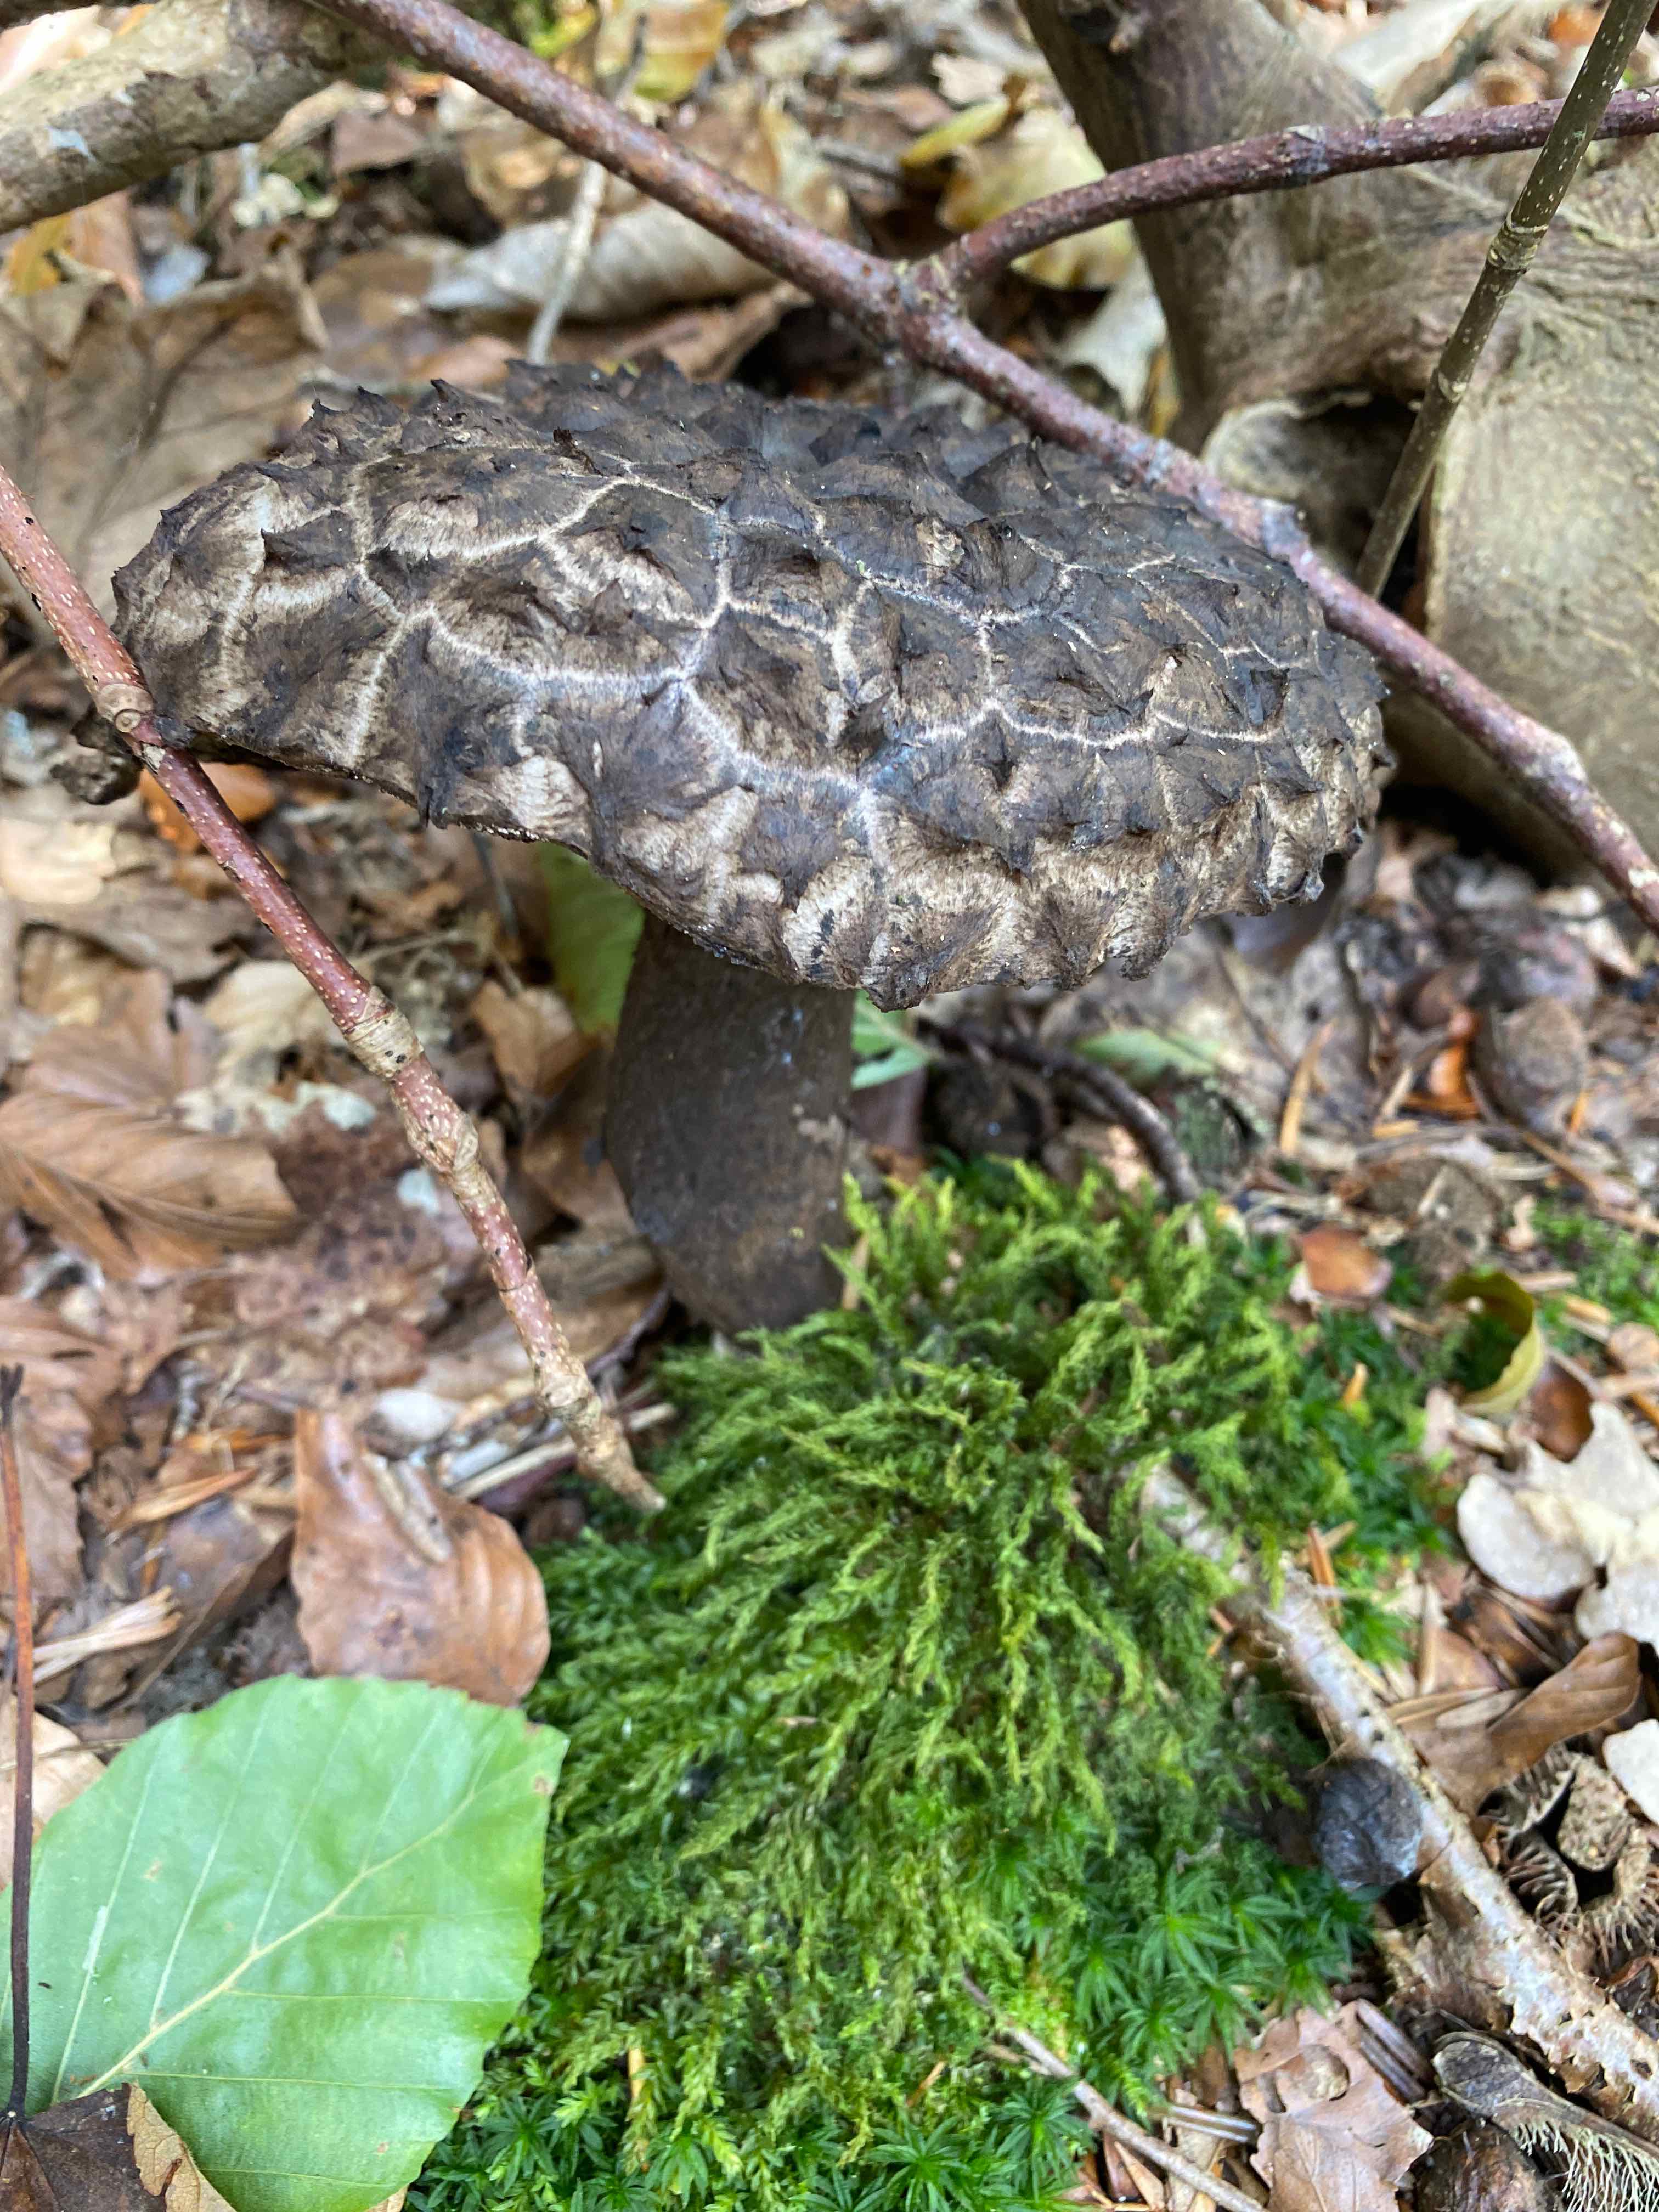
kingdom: Fungi
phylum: Basidiomycota
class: Agaricomycetes
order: Boletales
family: Boletaceae
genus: Strobilomyces
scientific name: Strobilomyces strobilaceus
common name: koglerørhat
